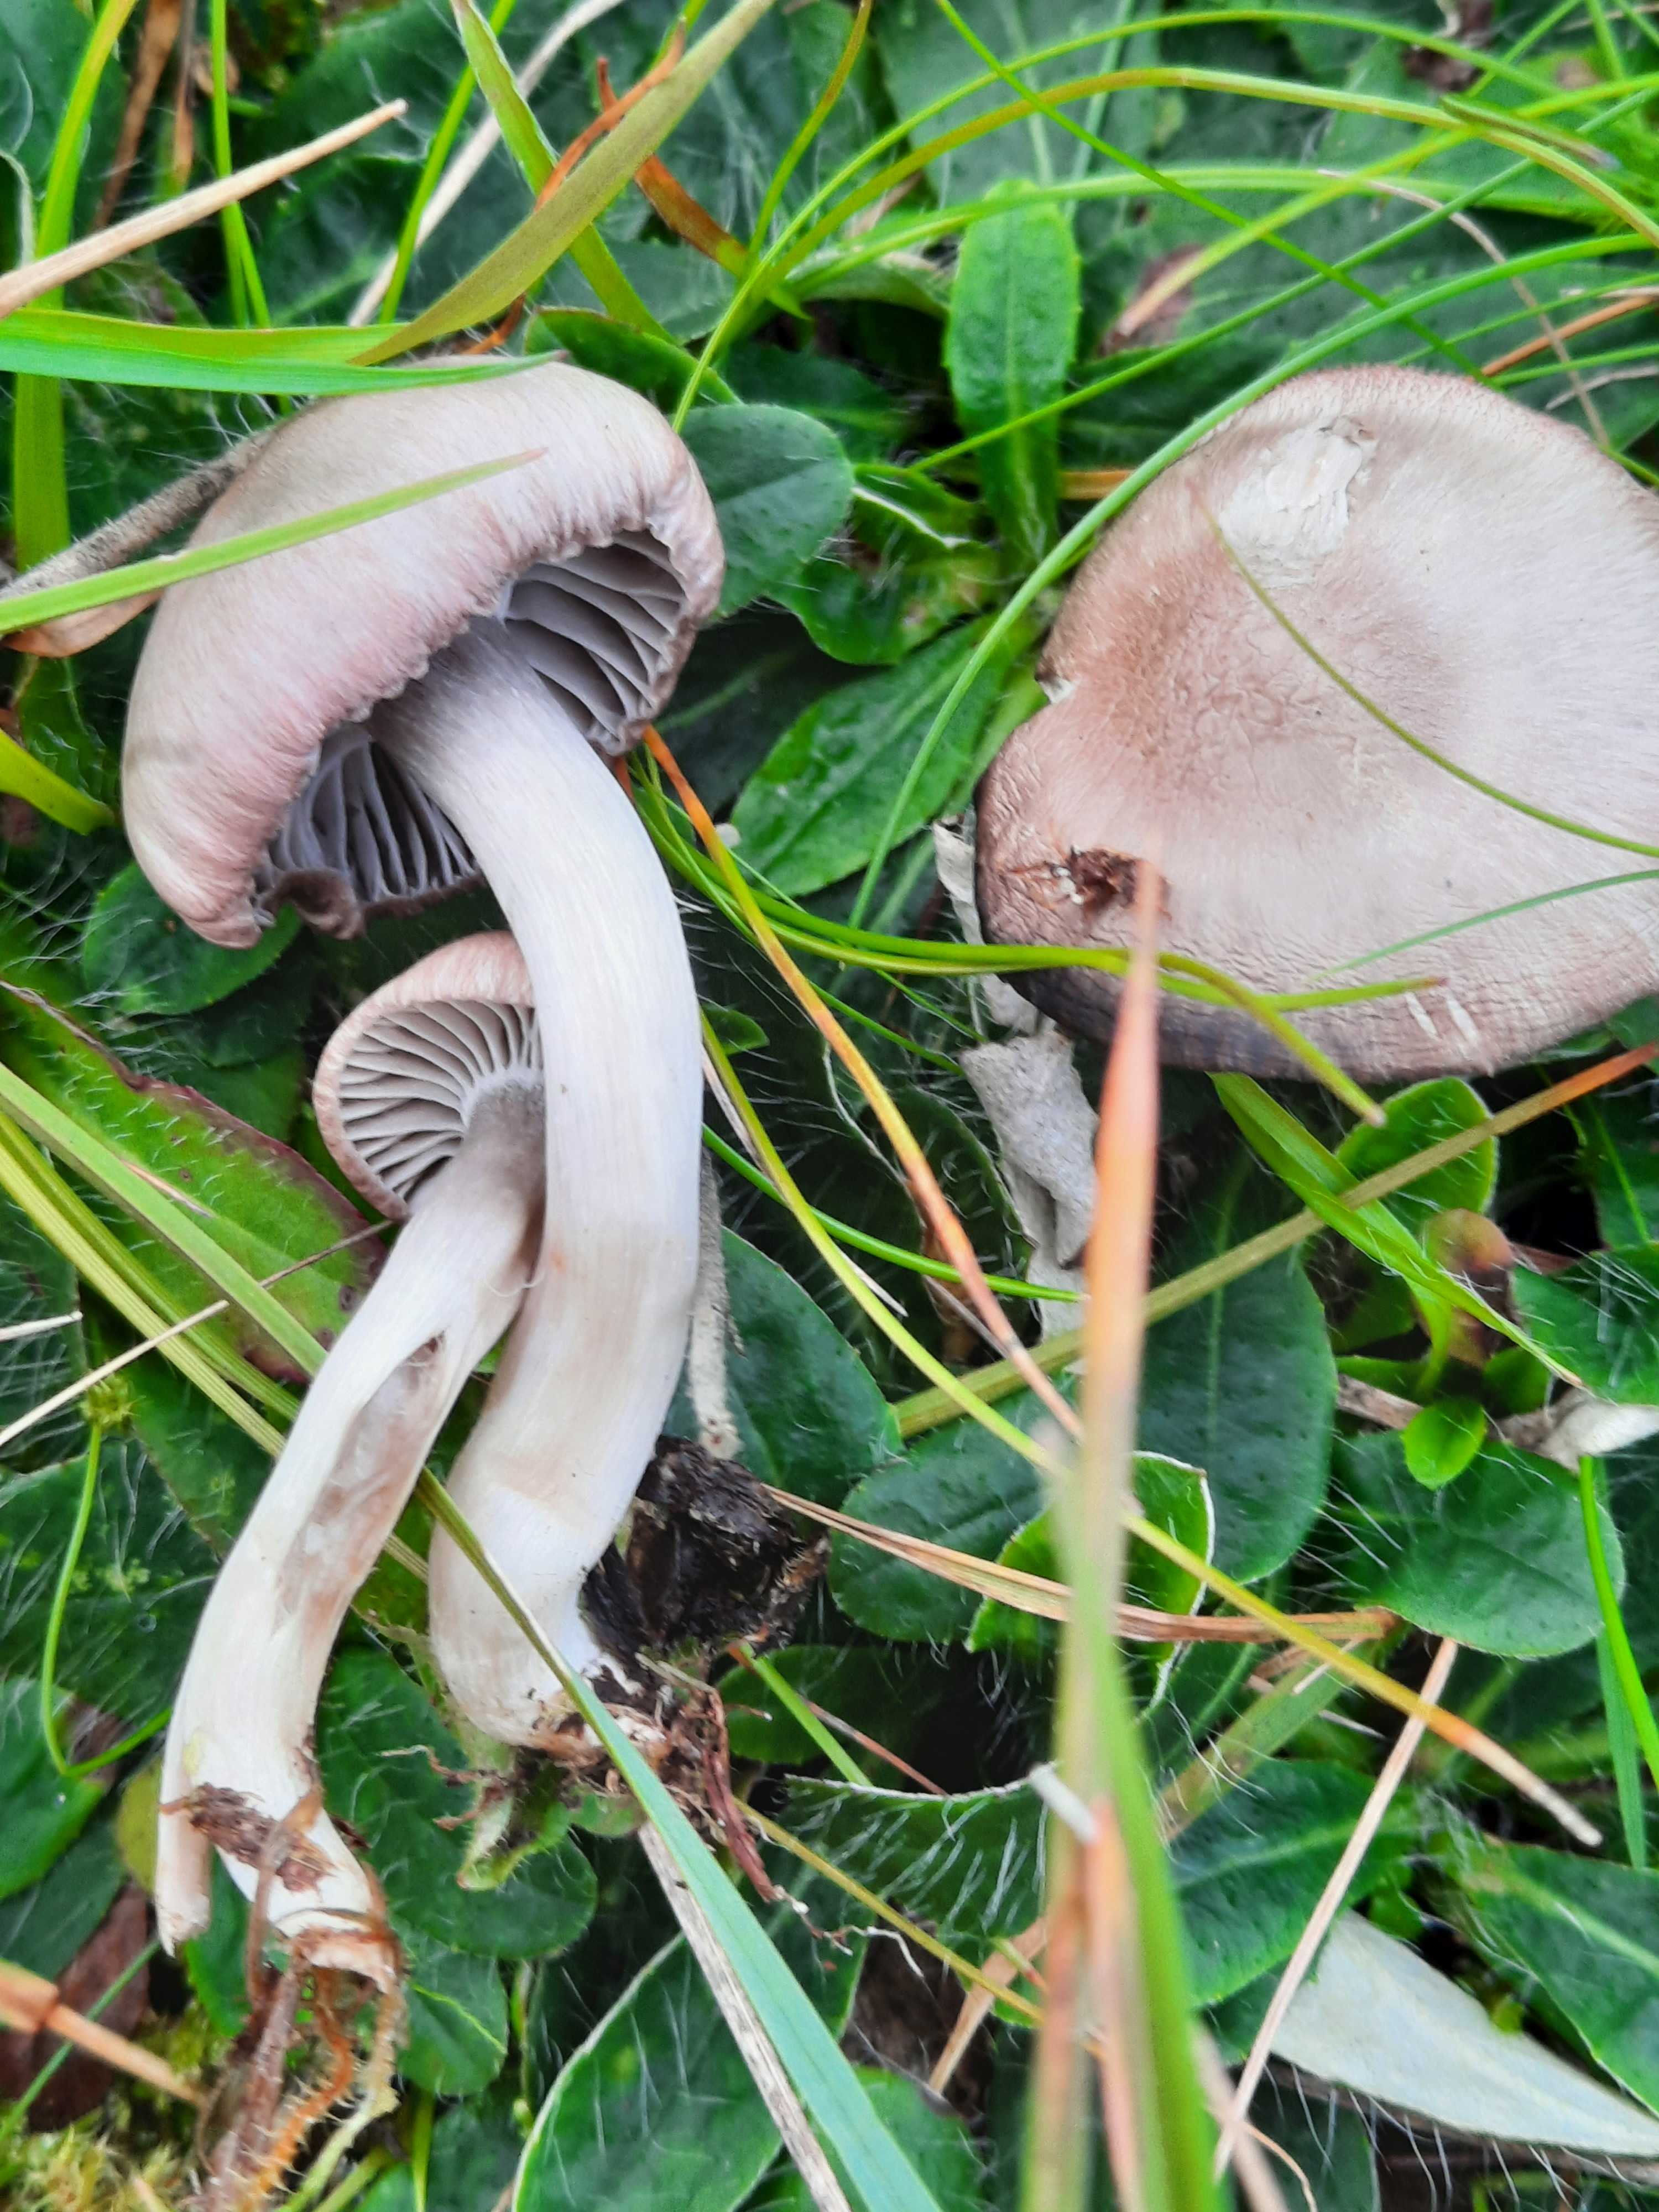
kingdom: Fungi
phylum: Basidiomycota
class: Agaricomycetes
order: Agaricales
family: Hygrophoraceae
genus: Cuphophyllus
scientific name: Cuphophyllus flavipes
